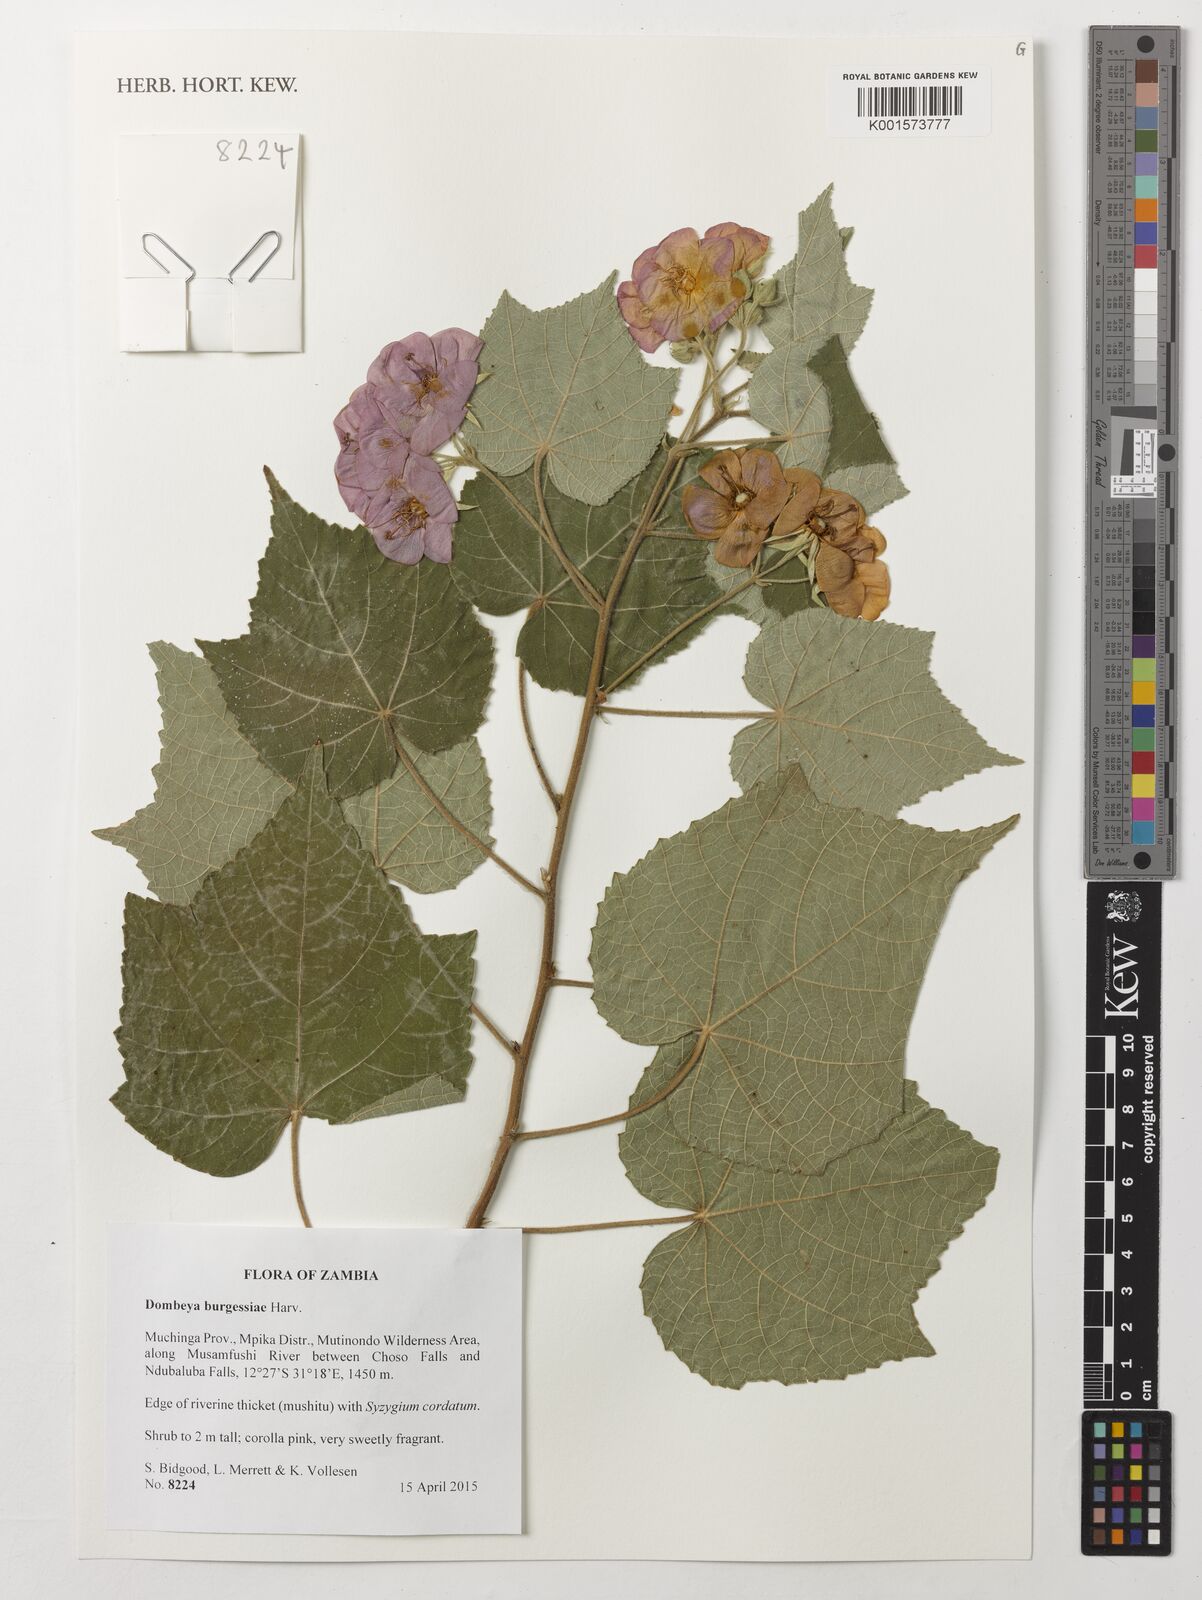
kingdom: Plantae
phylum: Tracheophyta
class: Magnoliopsida
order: Malvales
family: Malvaceae
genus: Dombeya
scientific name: Dombeya burgessiae
